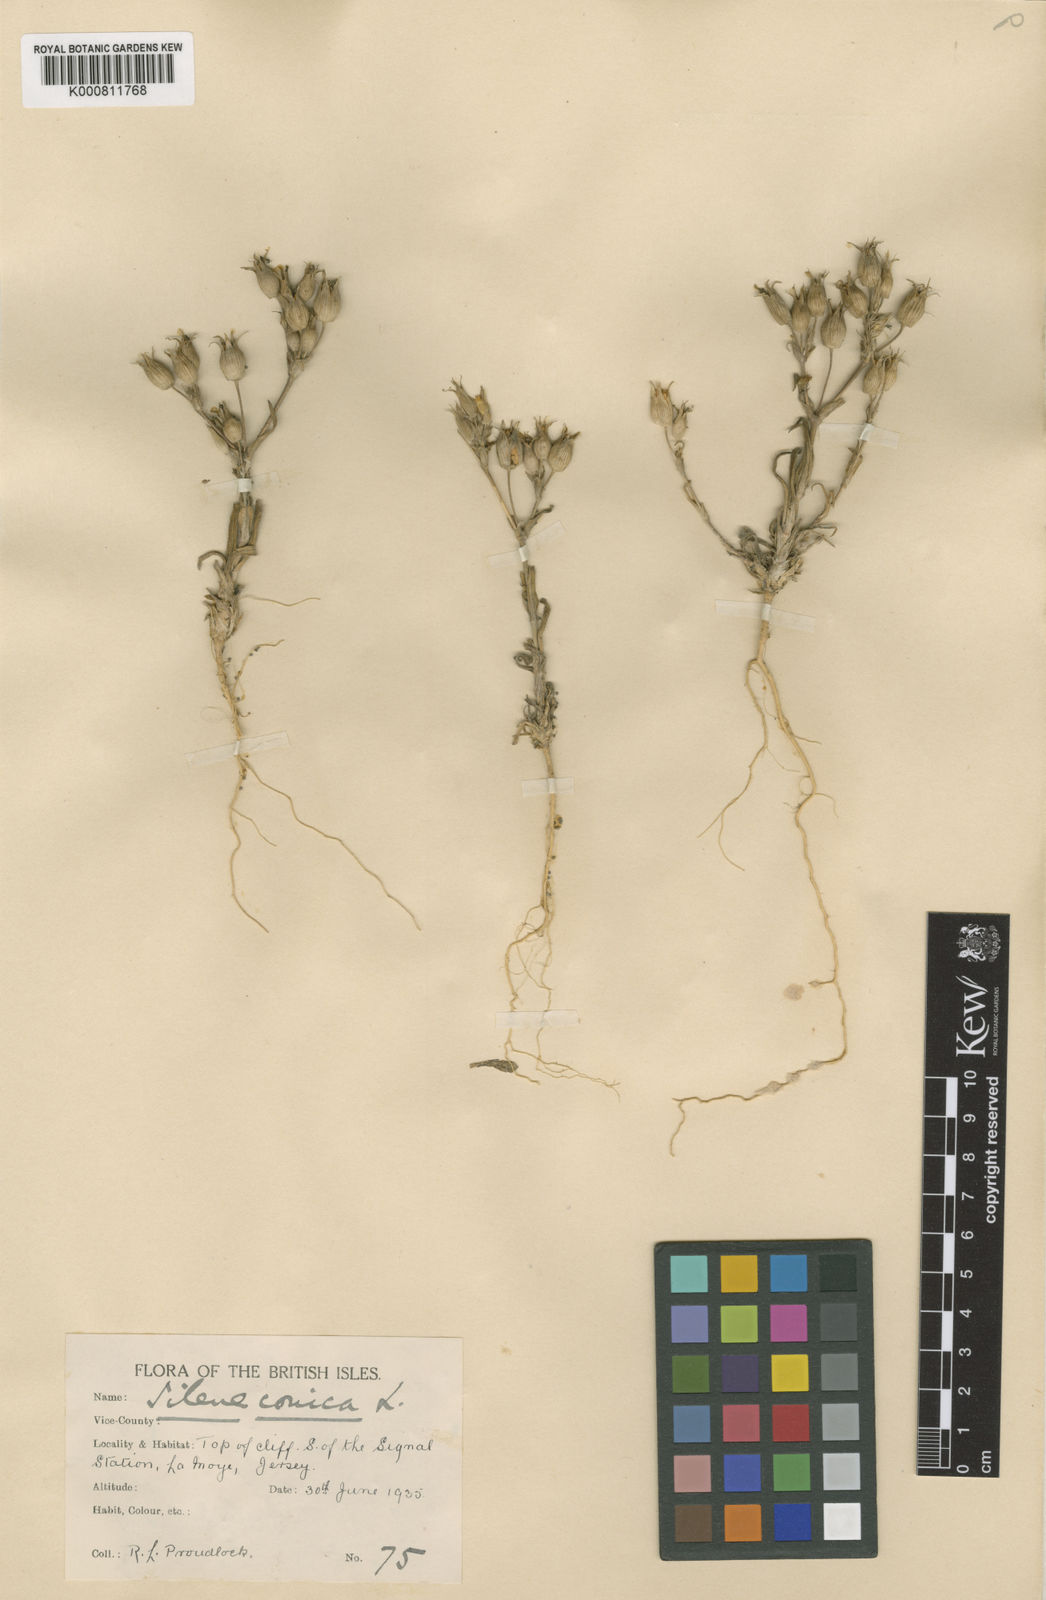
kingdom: Plantae
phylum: Tracheophyta
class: Magnoliopsida
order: Caryophyllales
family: Caryophyllaceae
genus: Silene
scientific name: Silene conica
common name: Sand catchfly
